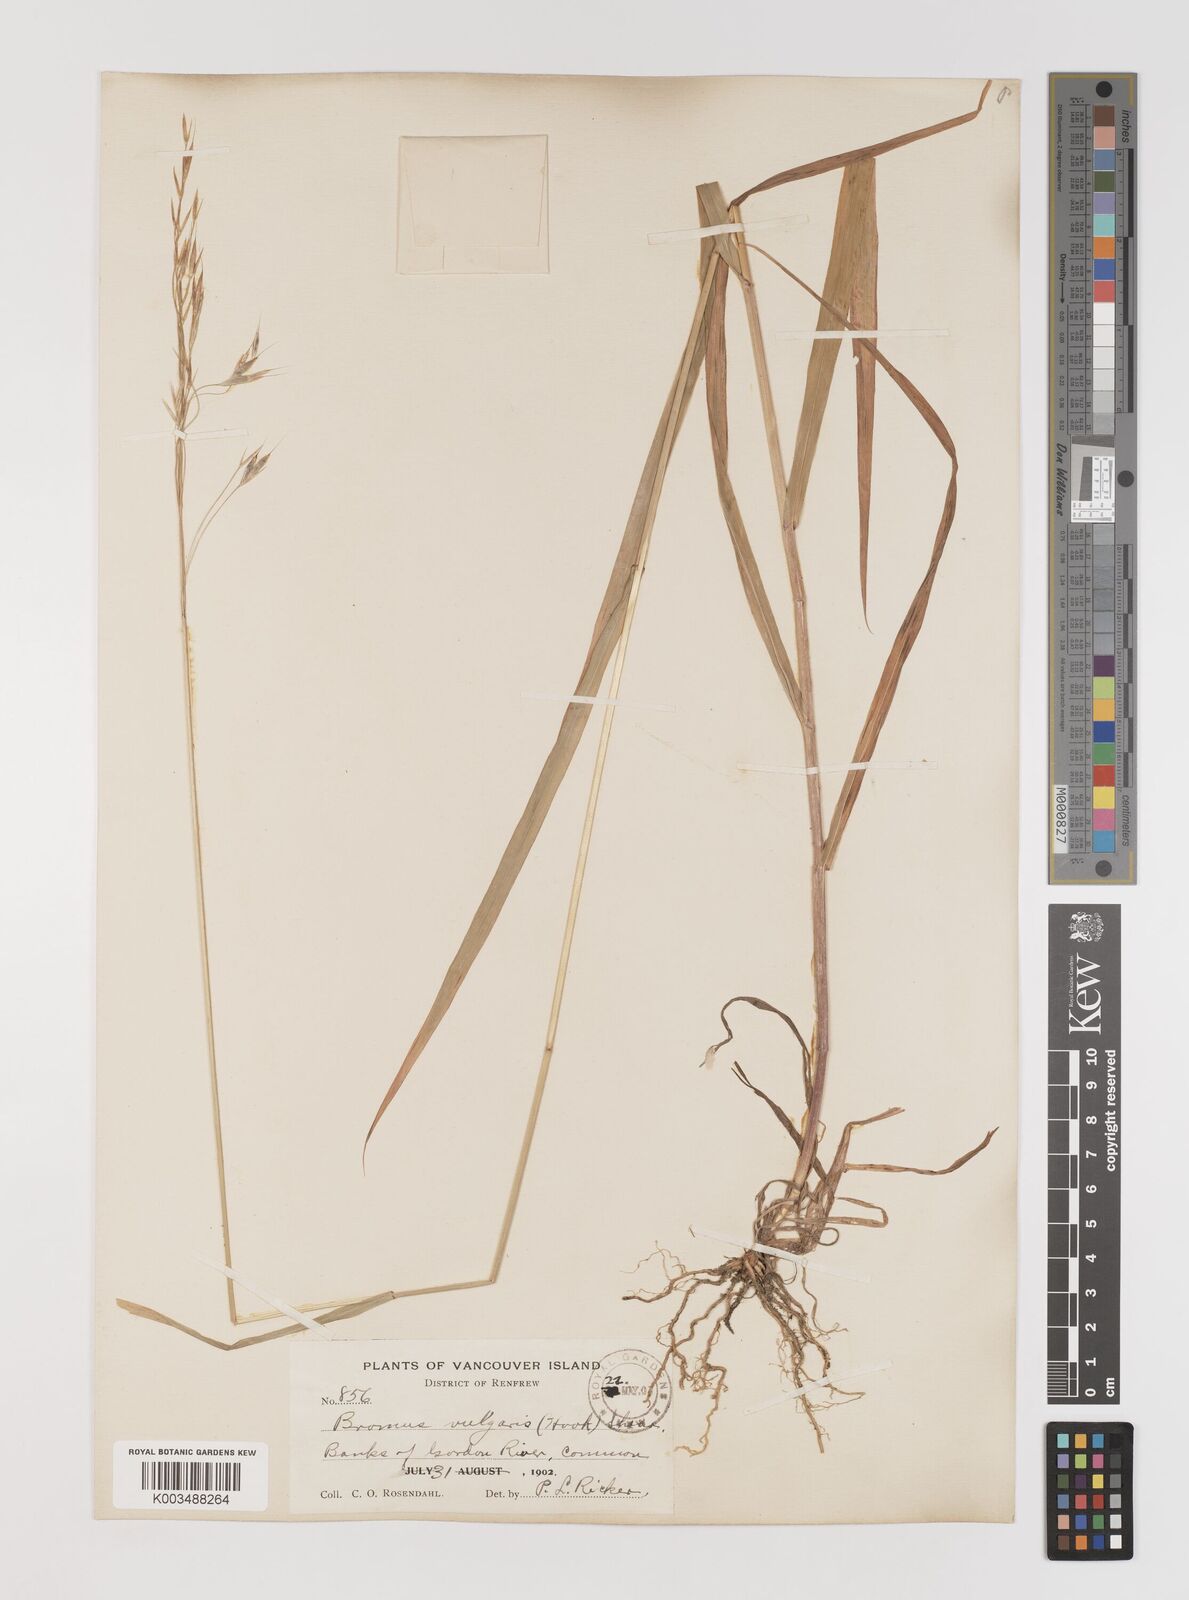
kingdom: Plantae
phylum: Tracheophyta
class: Liliopsida
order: Poales
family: Poaceae
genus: Bromus
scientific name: Bromus vulgaris
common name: Columbia brome
